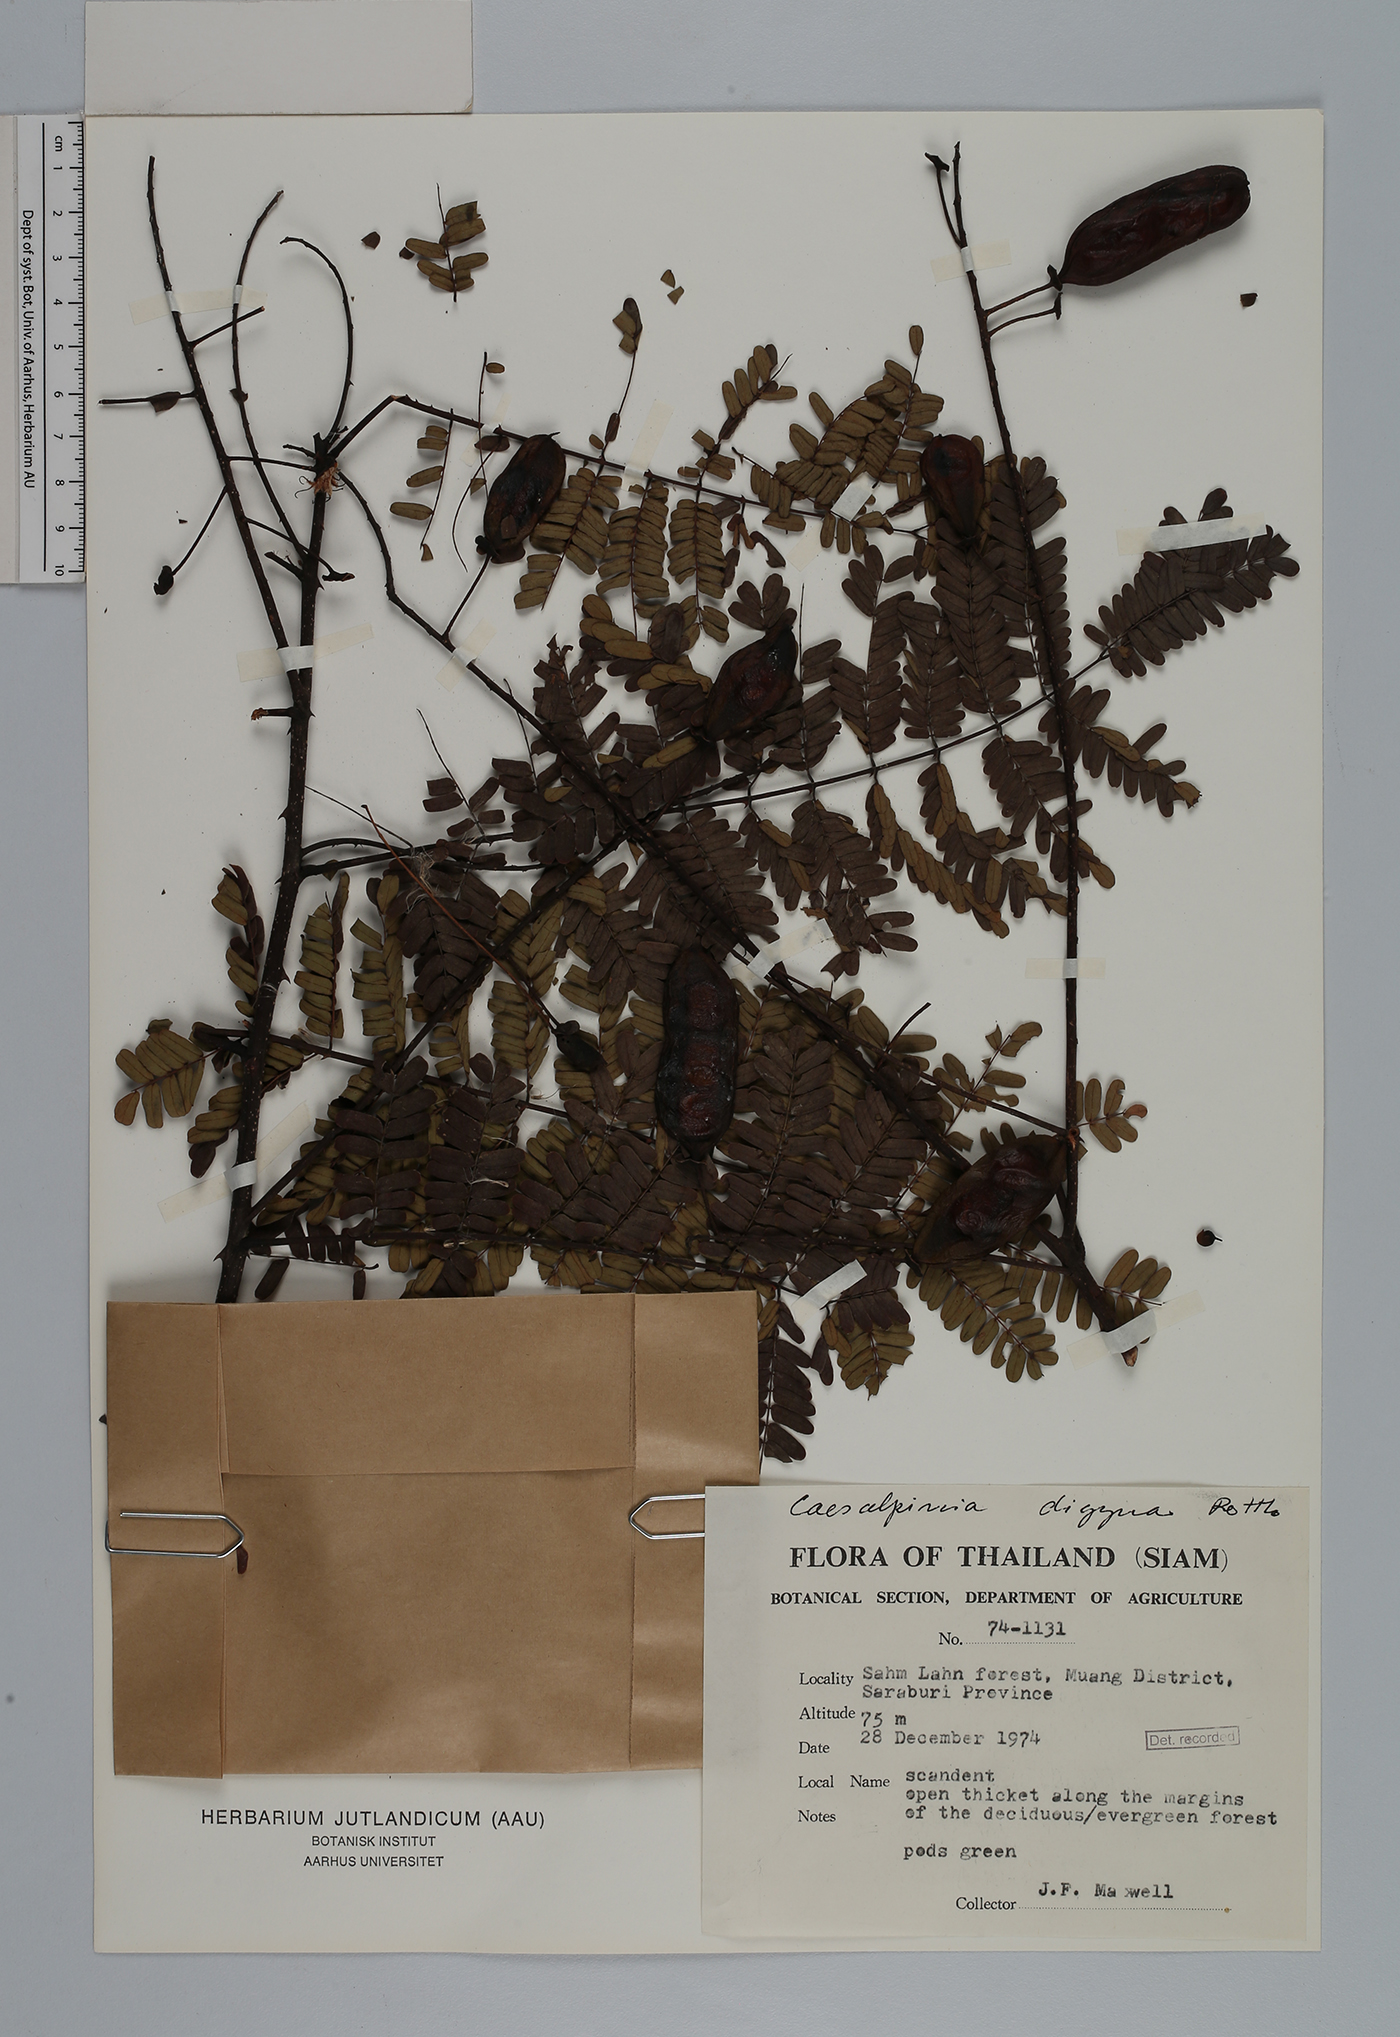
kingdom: Plantae
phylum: Tracheophyta
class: Magnoliopsida
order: Fabales
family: Fabaceae
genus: Moullava
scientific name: Moullava digyna
